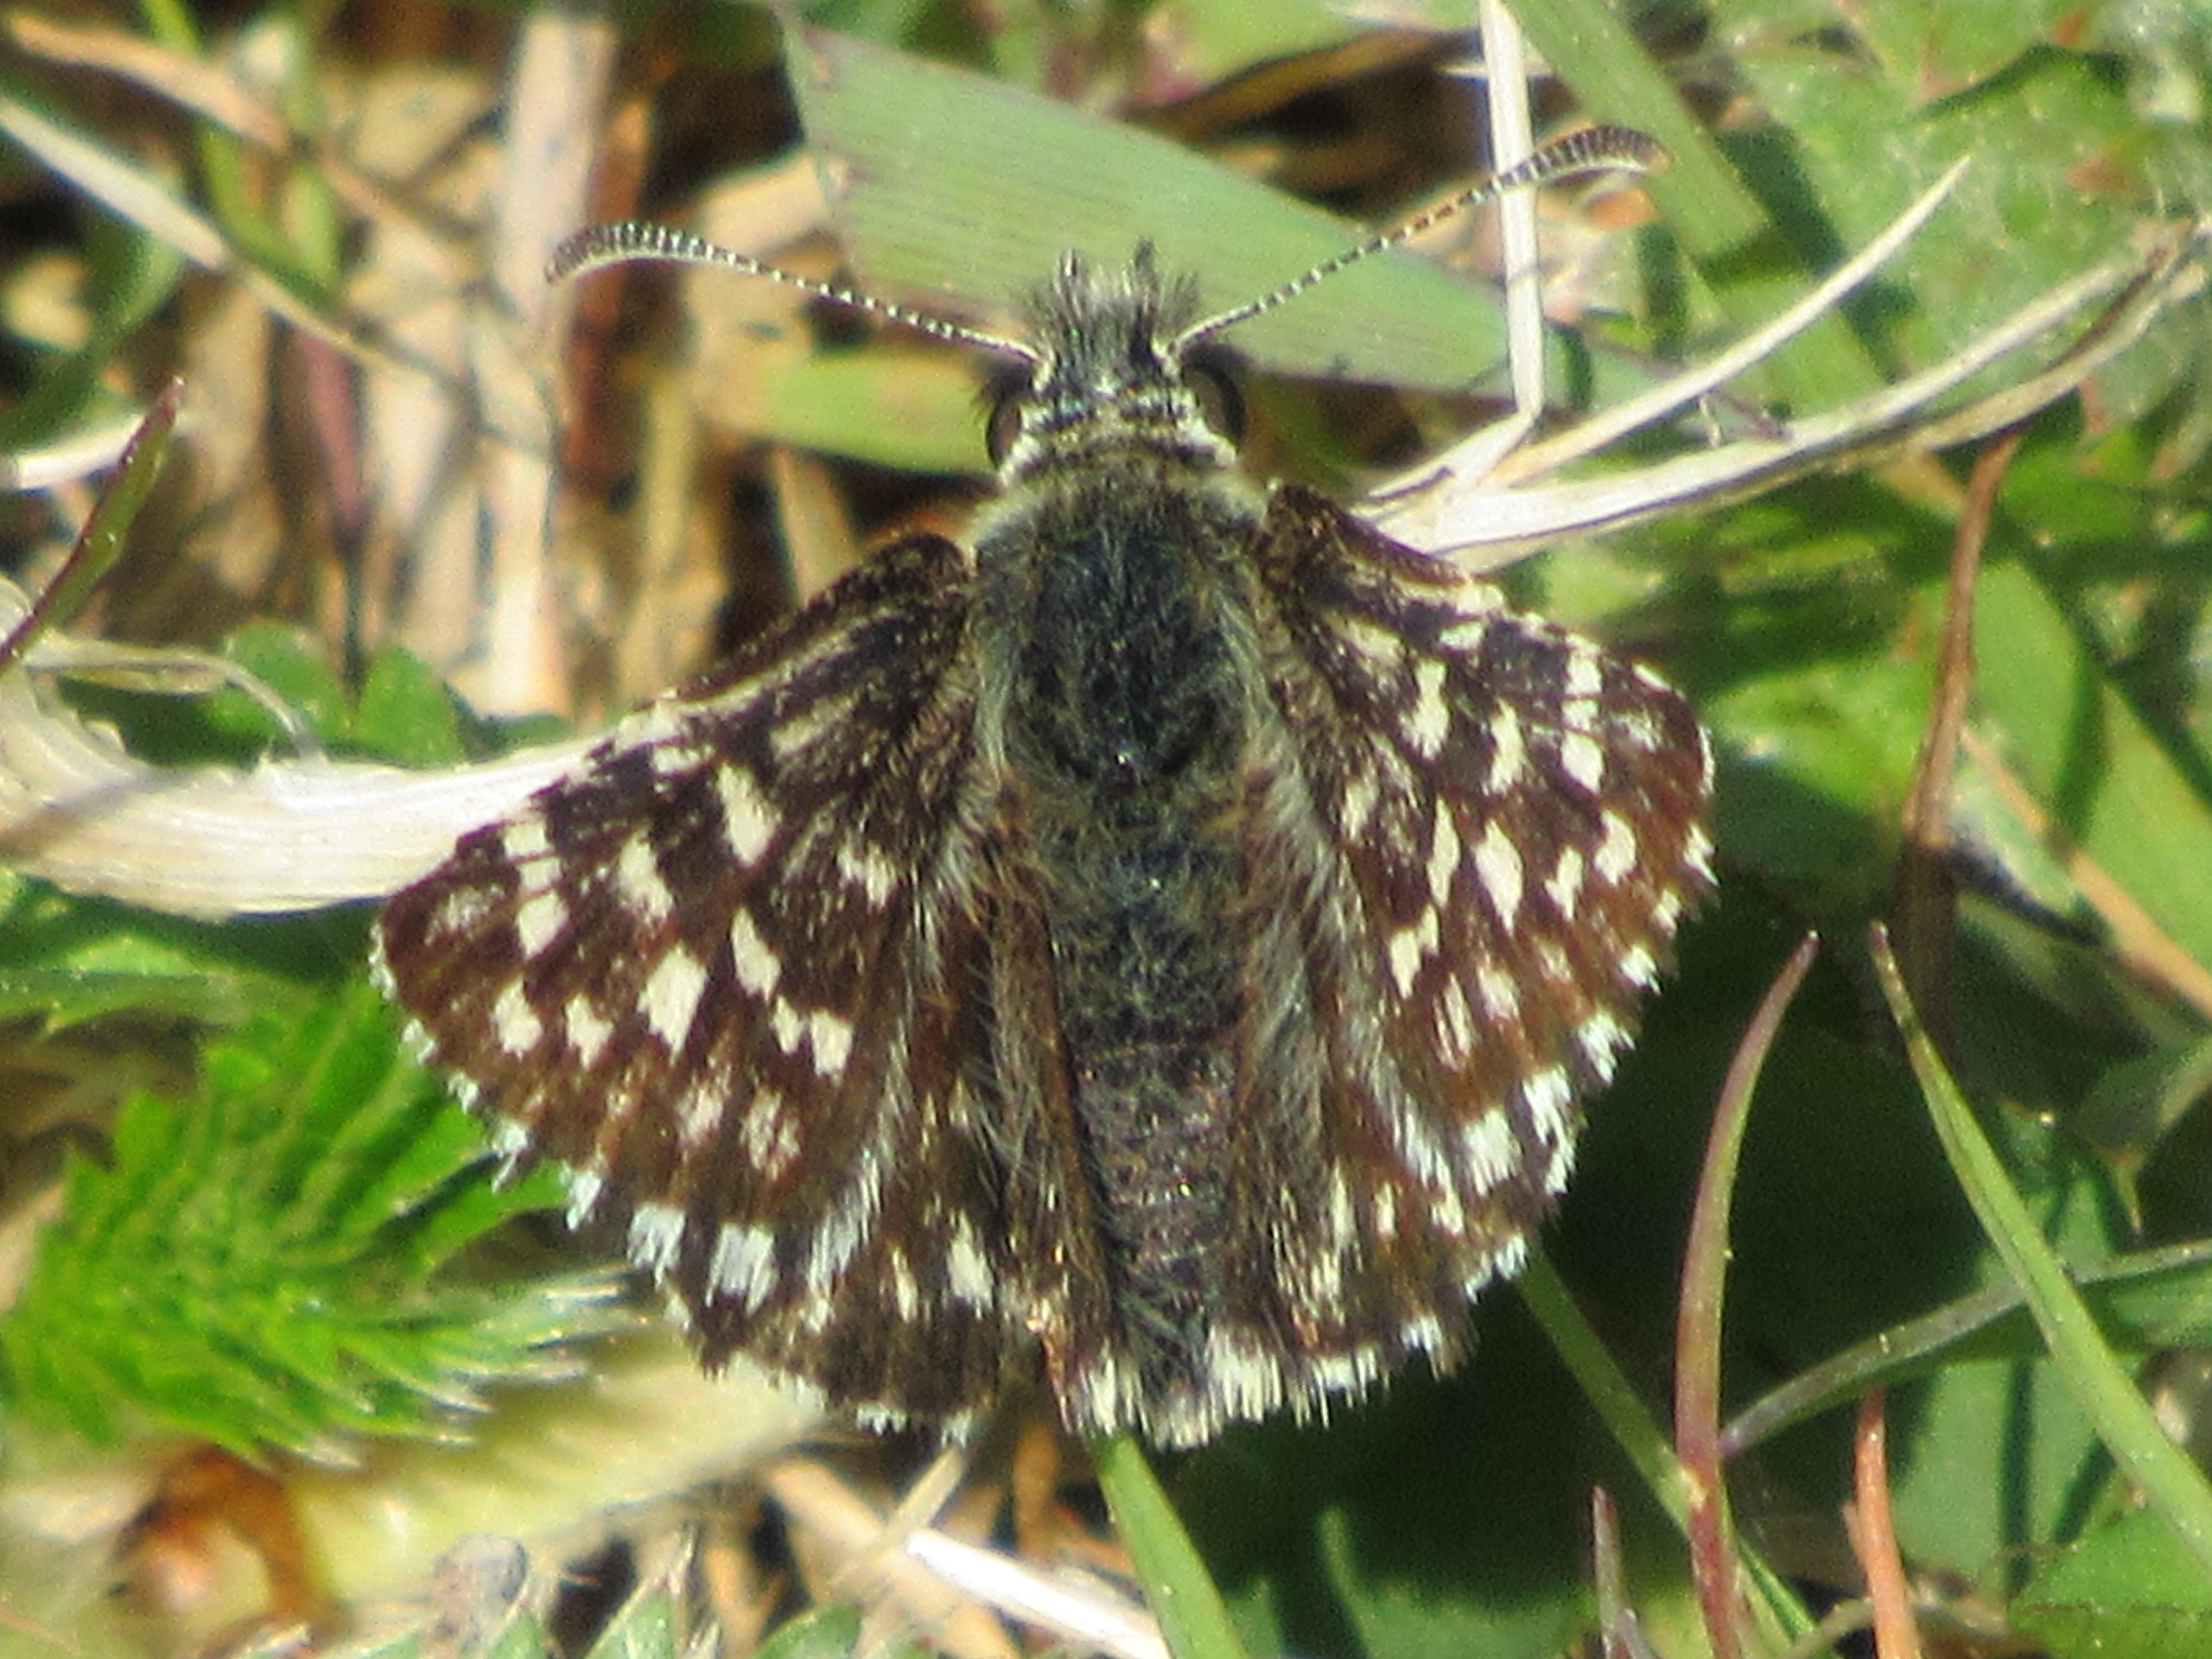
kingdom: Animalia
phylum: Arthropoda
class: Insecta
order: Lepidoptera
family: Hesperiidae
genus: Pyrgus
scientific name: Pyrgus malvae
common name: Spættet bredpande
